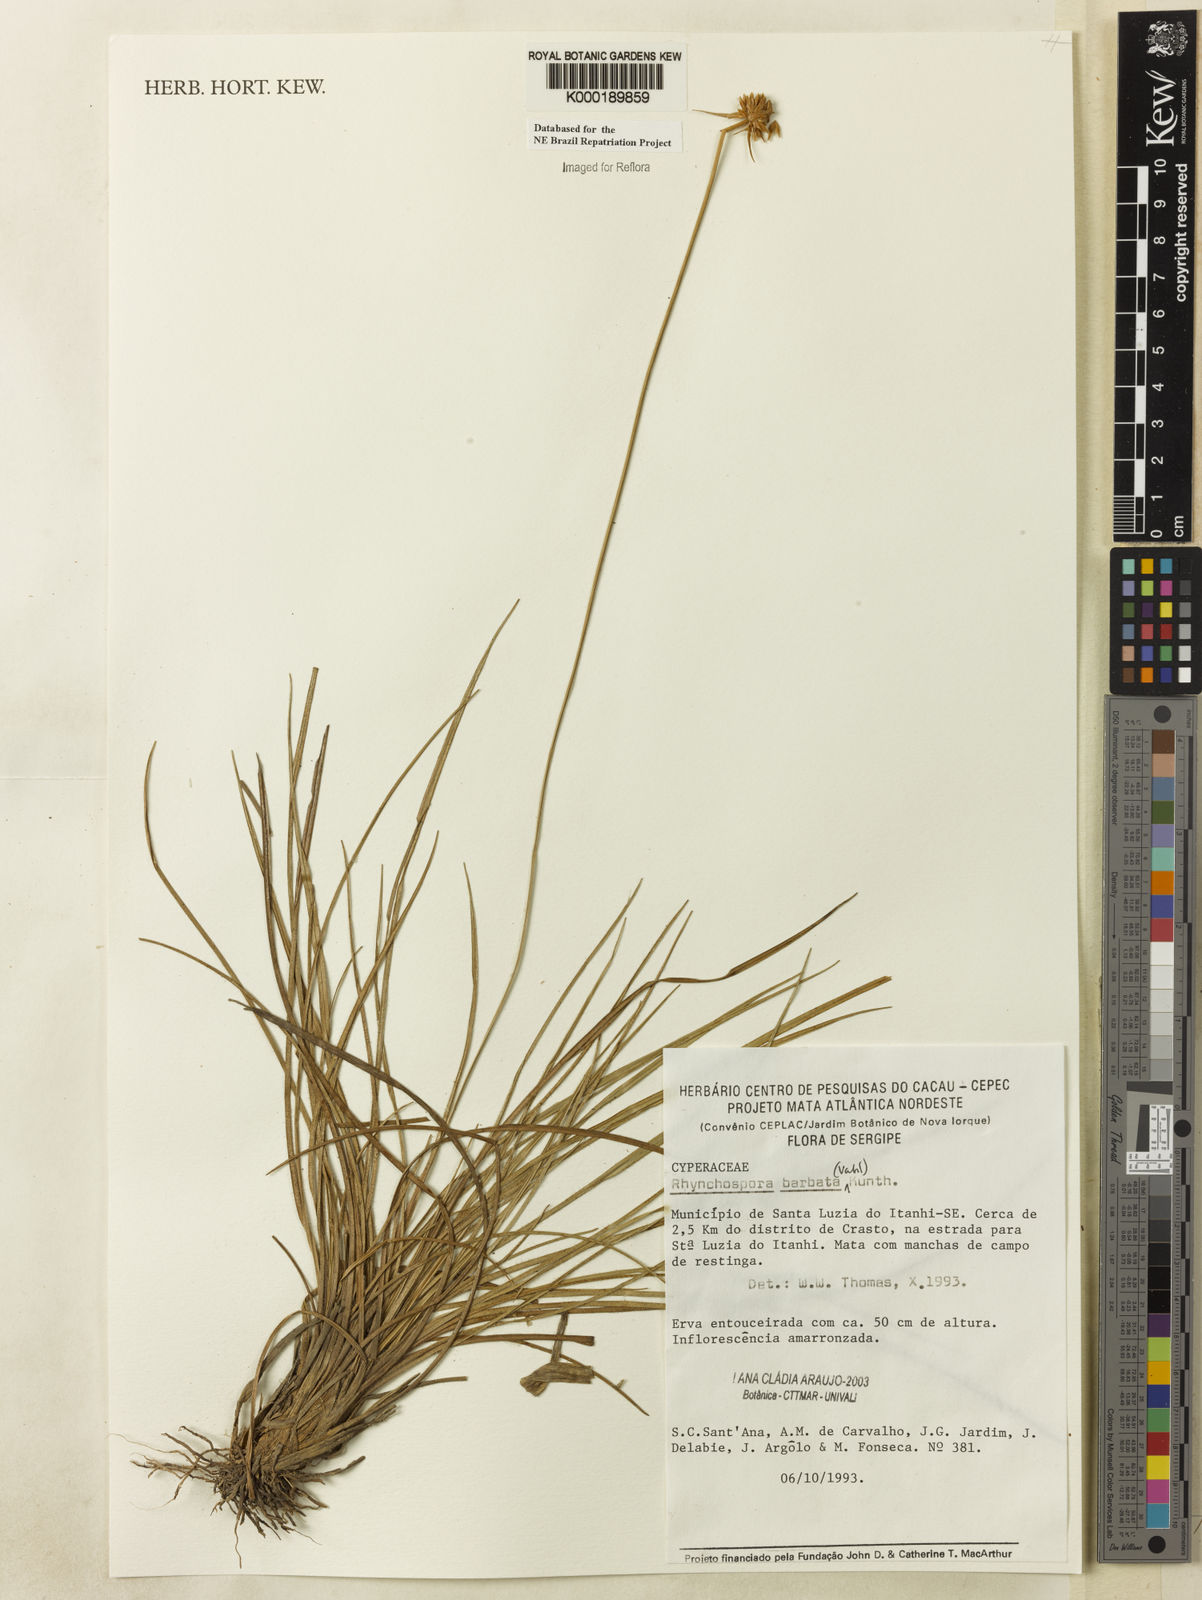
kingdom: Plantae
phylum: Tracheophyta
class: Liliopsida
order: Poales
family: Cyperaceae
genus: Rhynchospora
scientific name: Rhynchospora barbata
